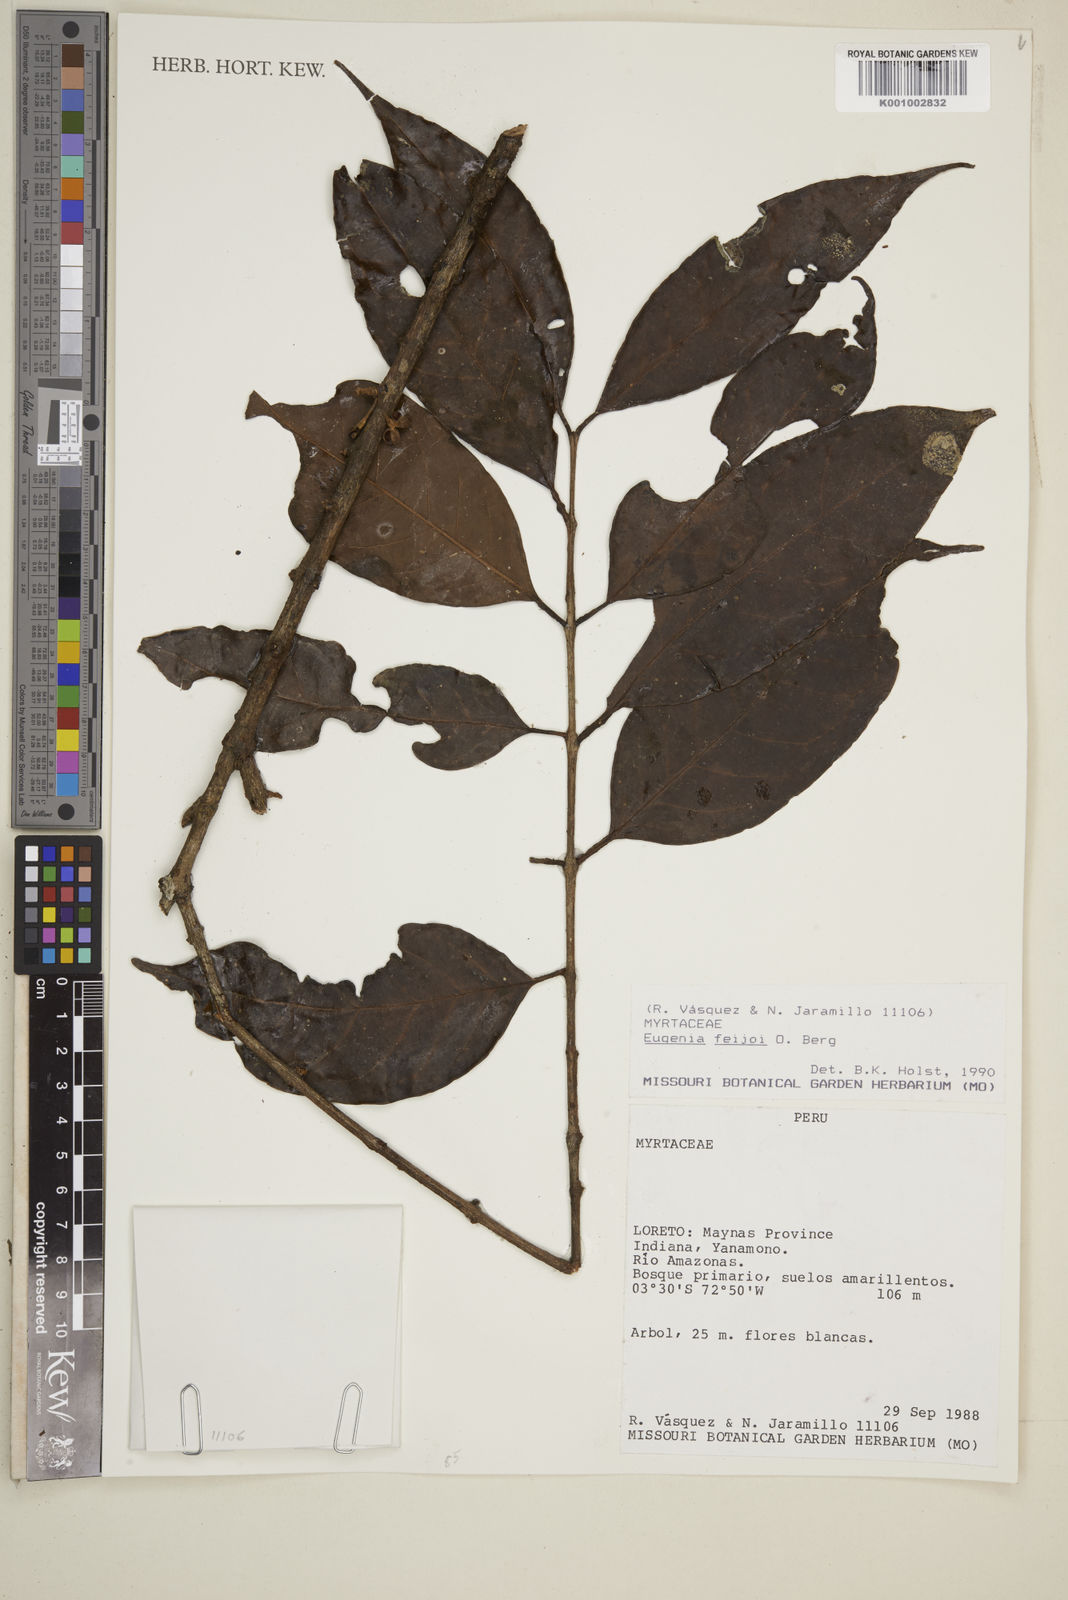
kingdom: Plantae
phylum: Tracheophyta
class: Magnoliopsida
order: Myrtales
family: Myrtaceae
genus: Eugenia
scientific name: Eugenia feijoi
